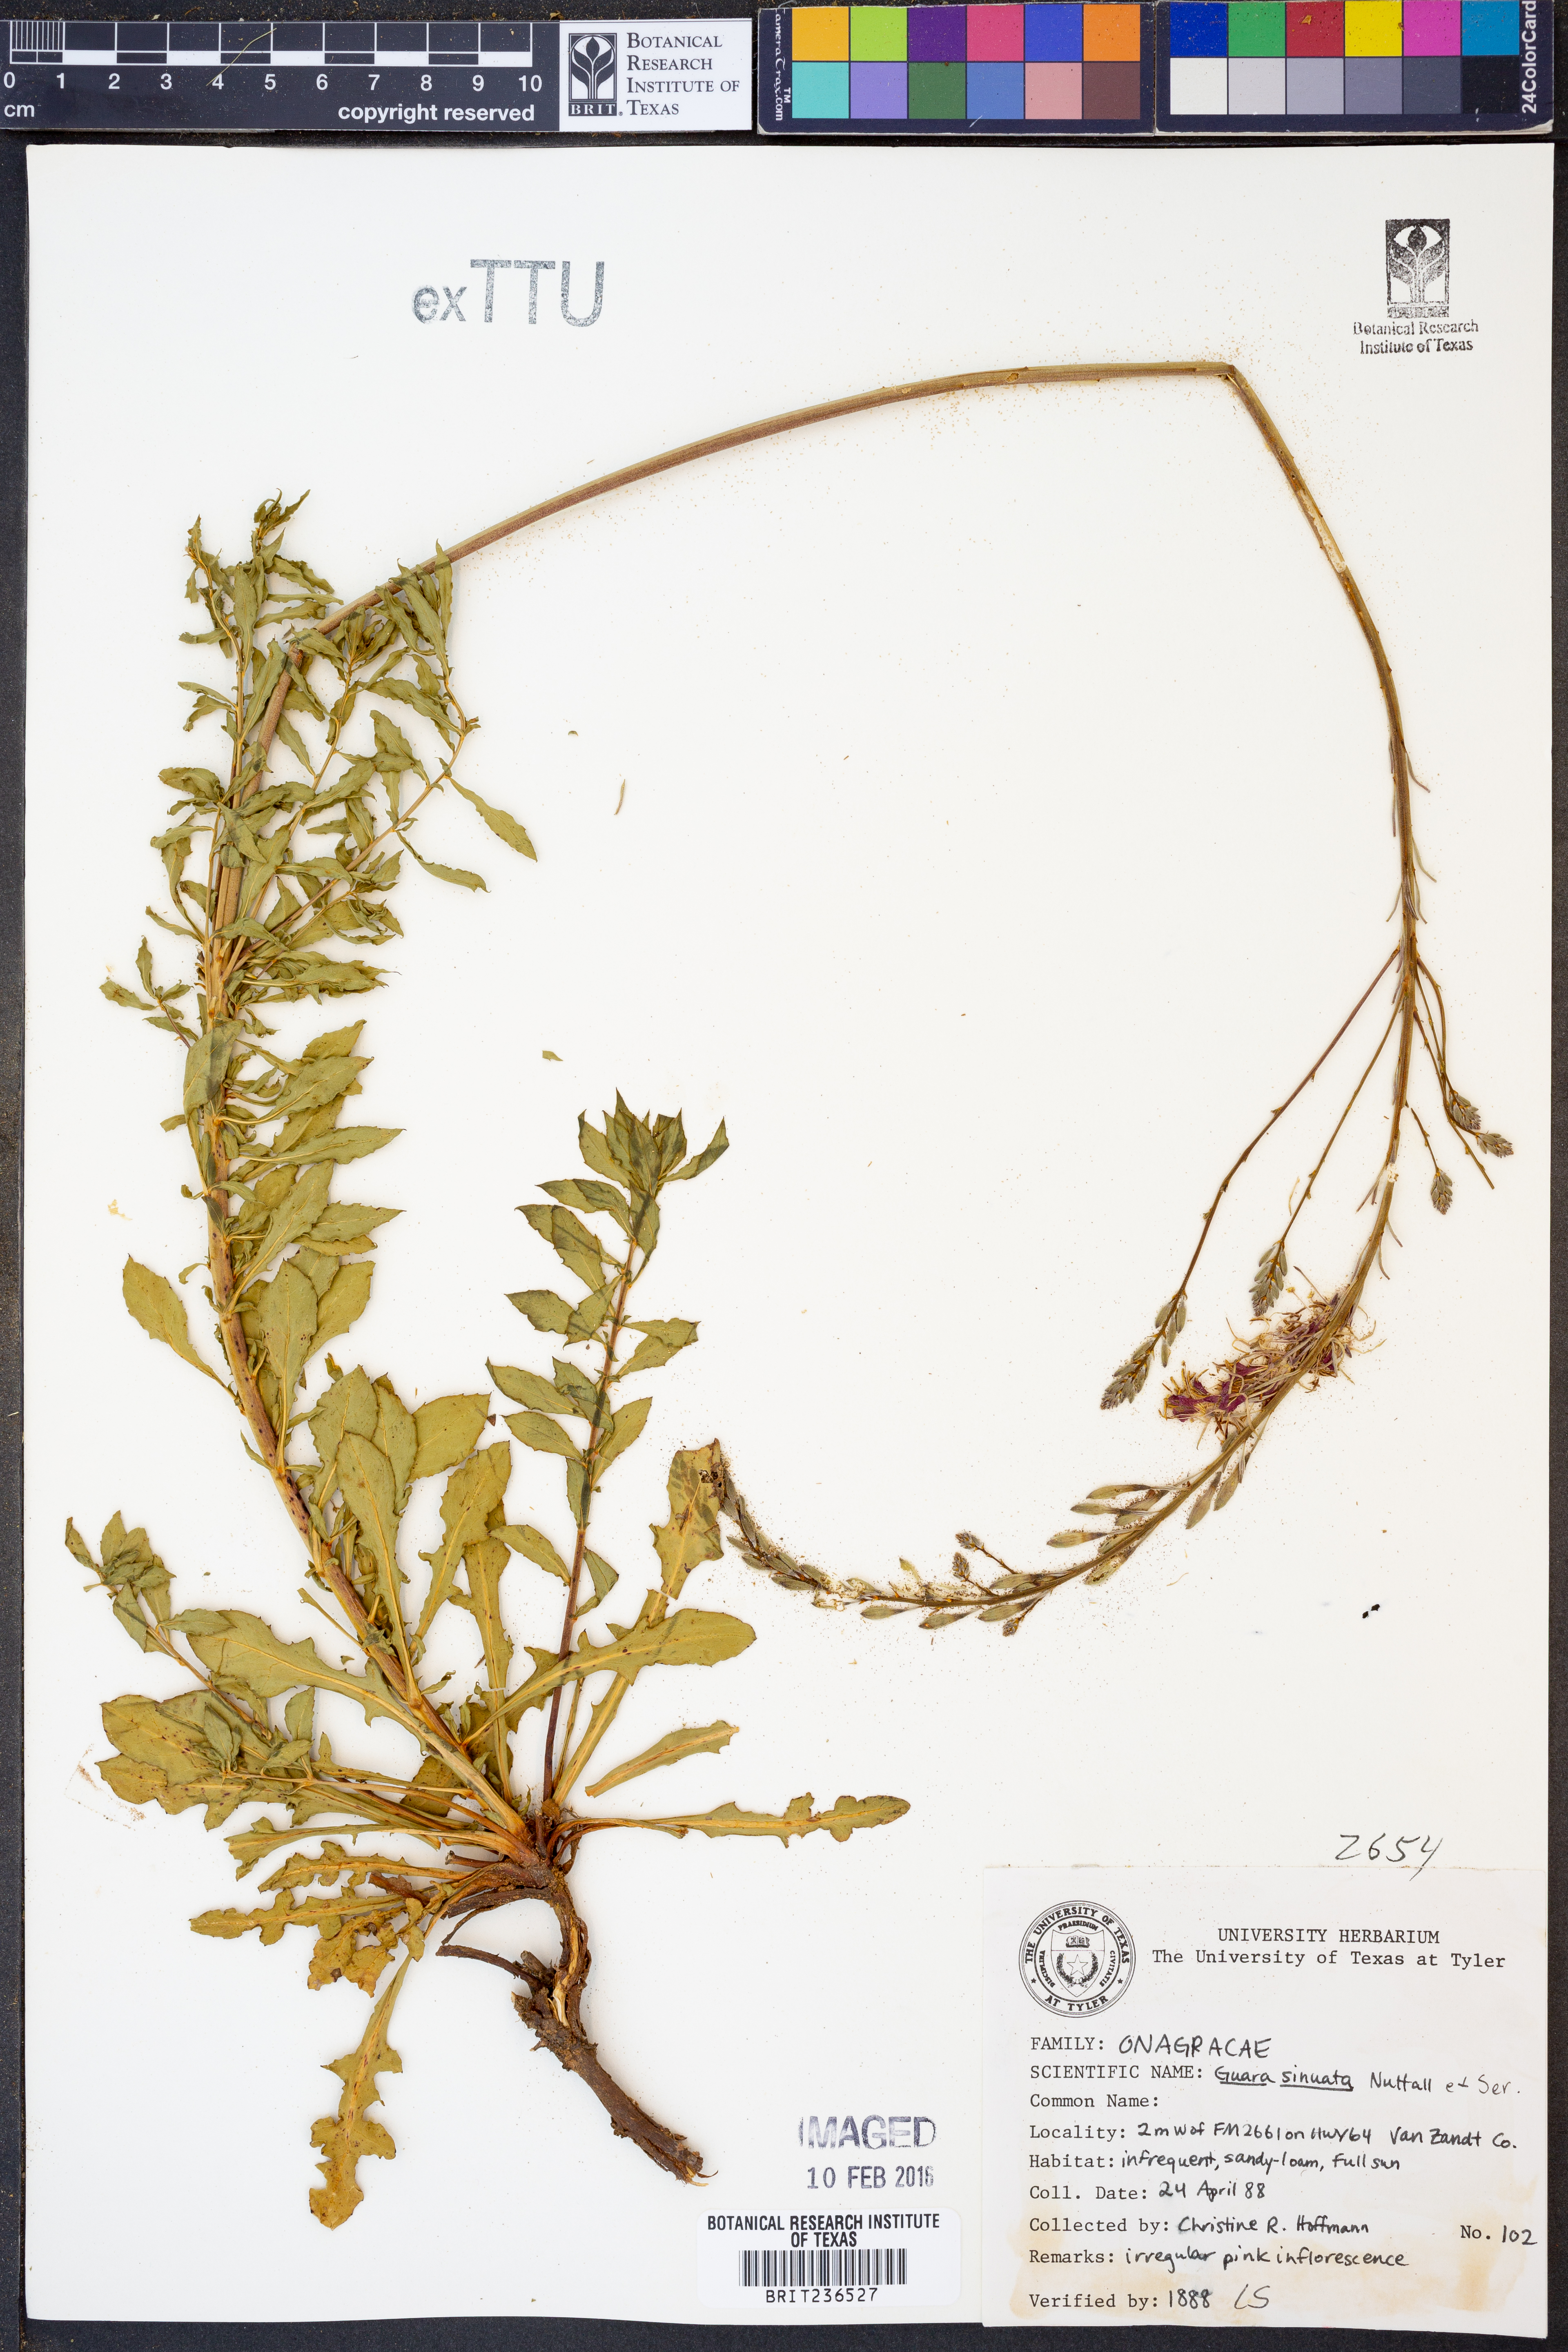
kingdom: Plantae
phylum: Tracheophyta
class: Magnoliopsida
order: Myrtales
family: Onagraceae
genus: Oenothera
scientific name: Oenothera sinuosa
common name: Wavyleaf beeblossom
